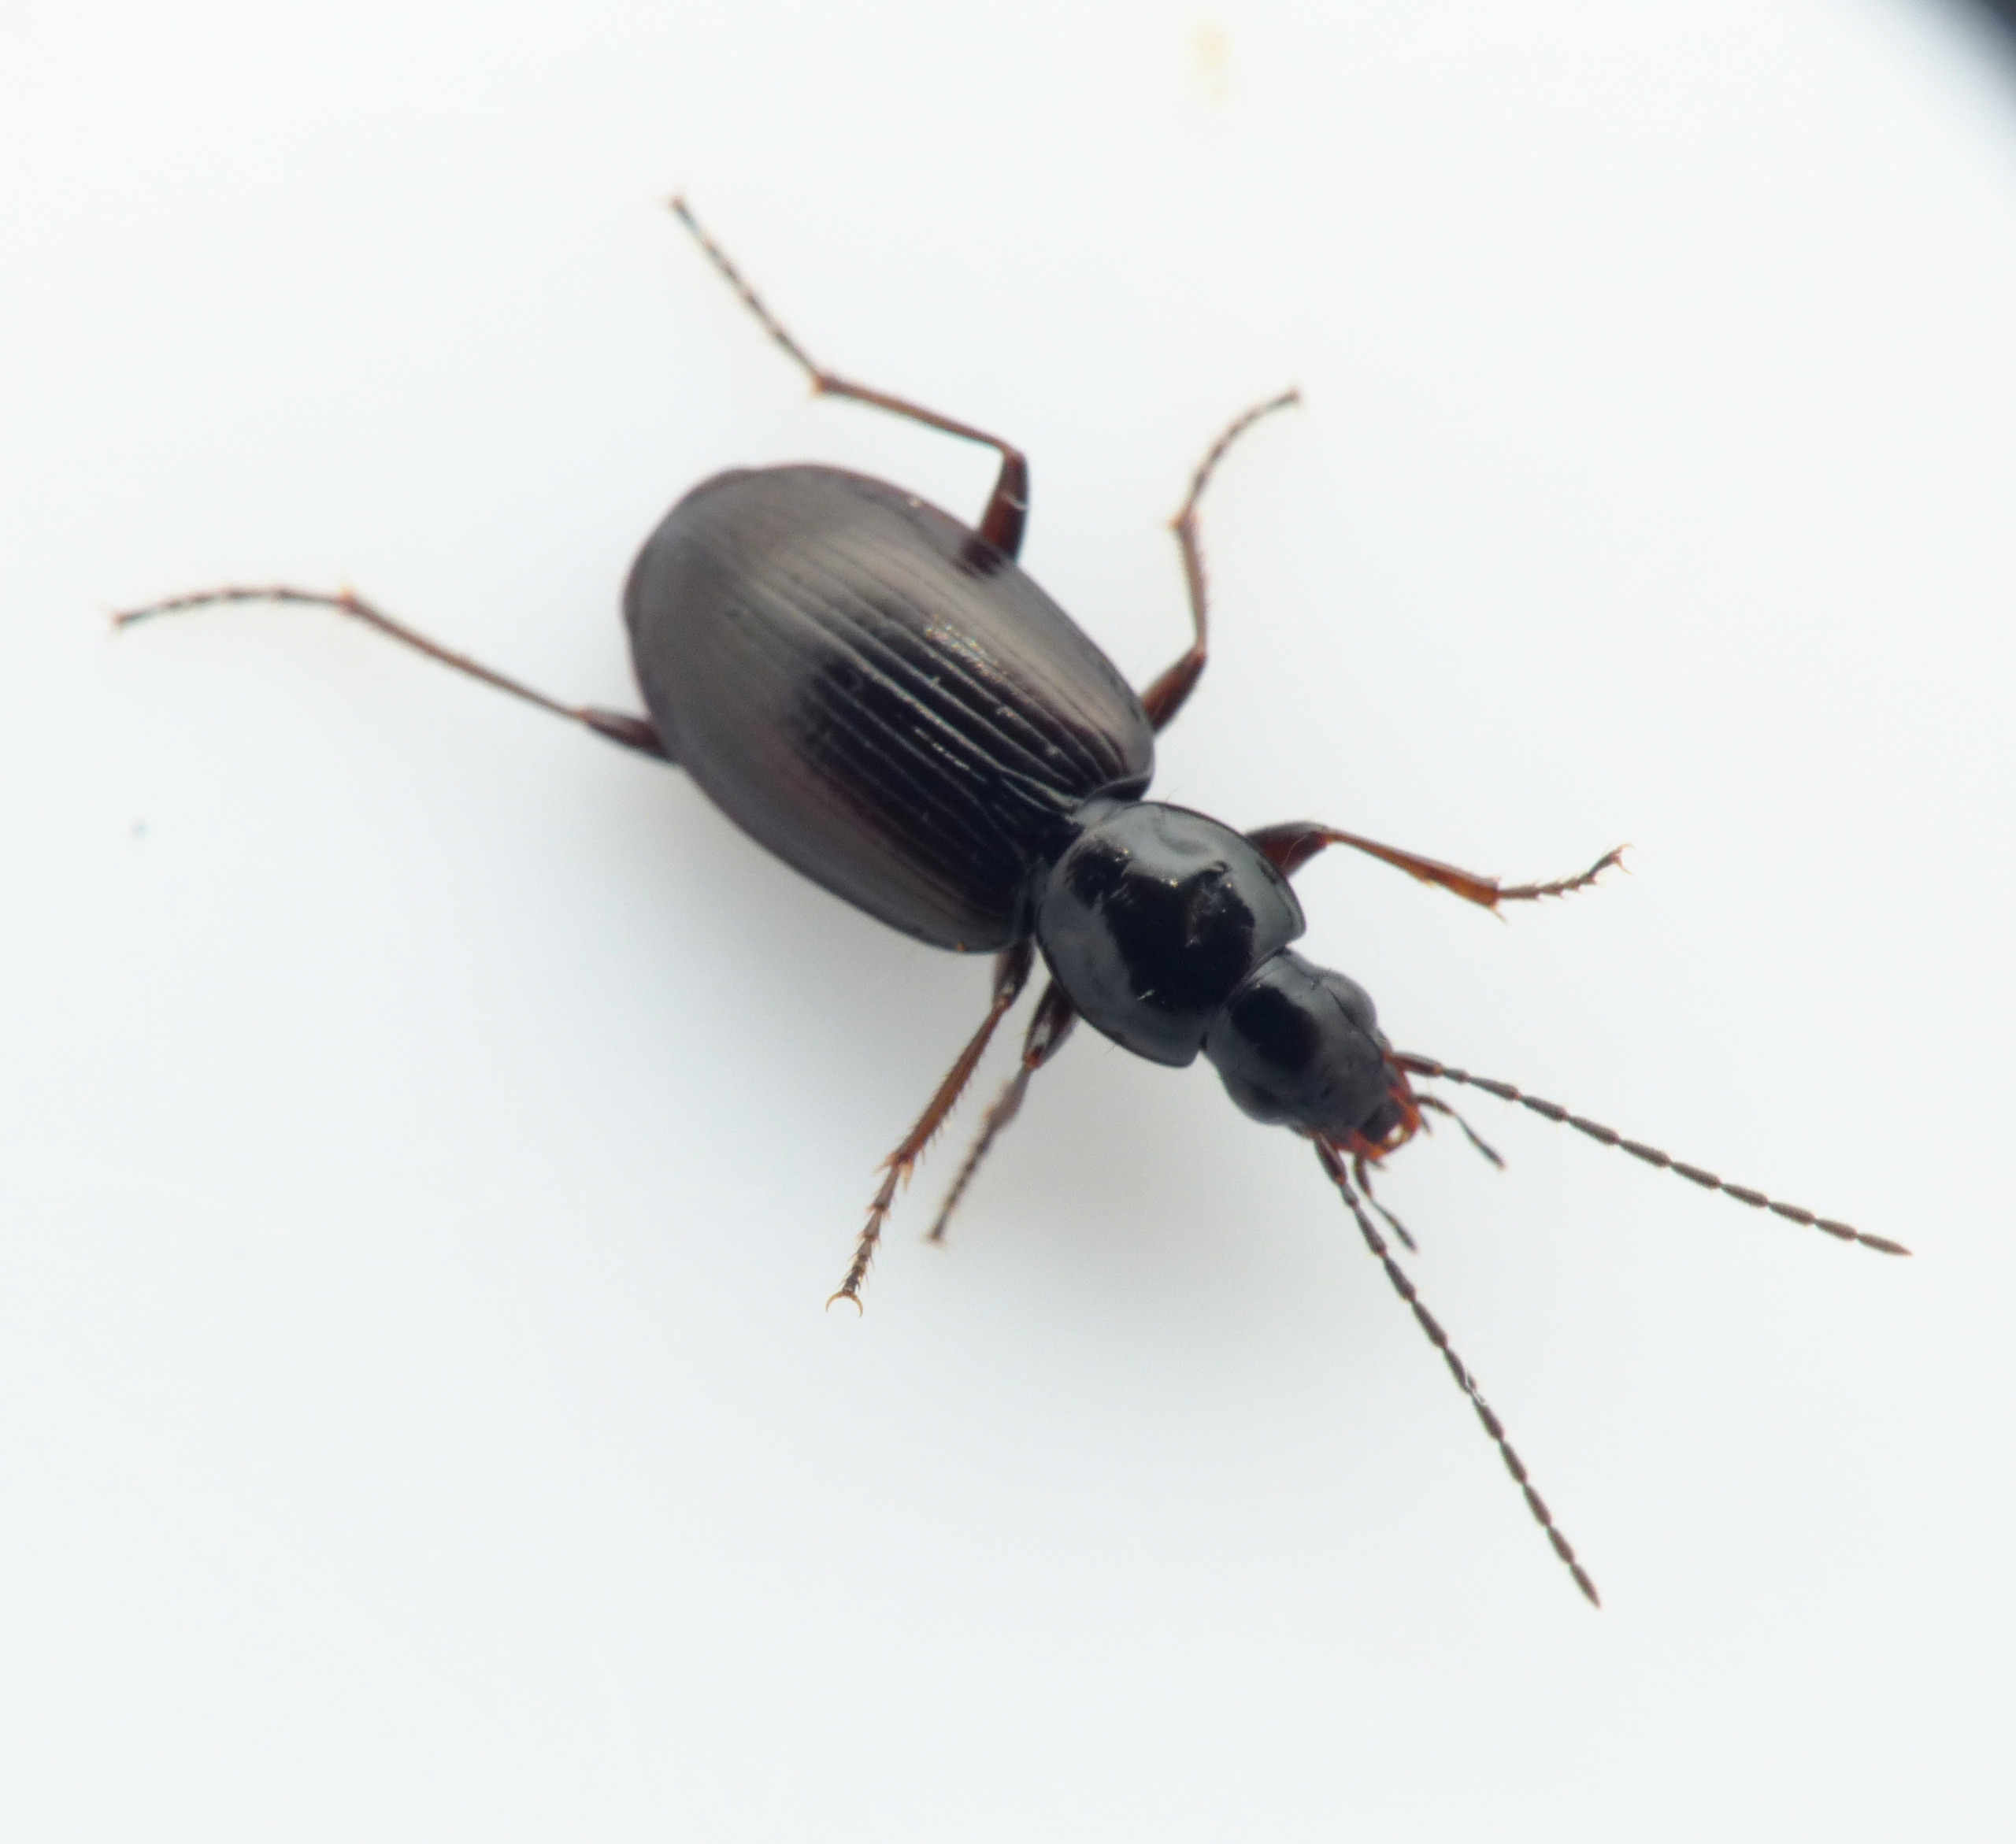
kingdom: Animalia
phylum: Arthropoda
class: Insecta
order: Coleoptera
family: Carabidae
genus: Agonum
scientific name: Agonum thoreyi
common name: Langstrakt kvikløber
